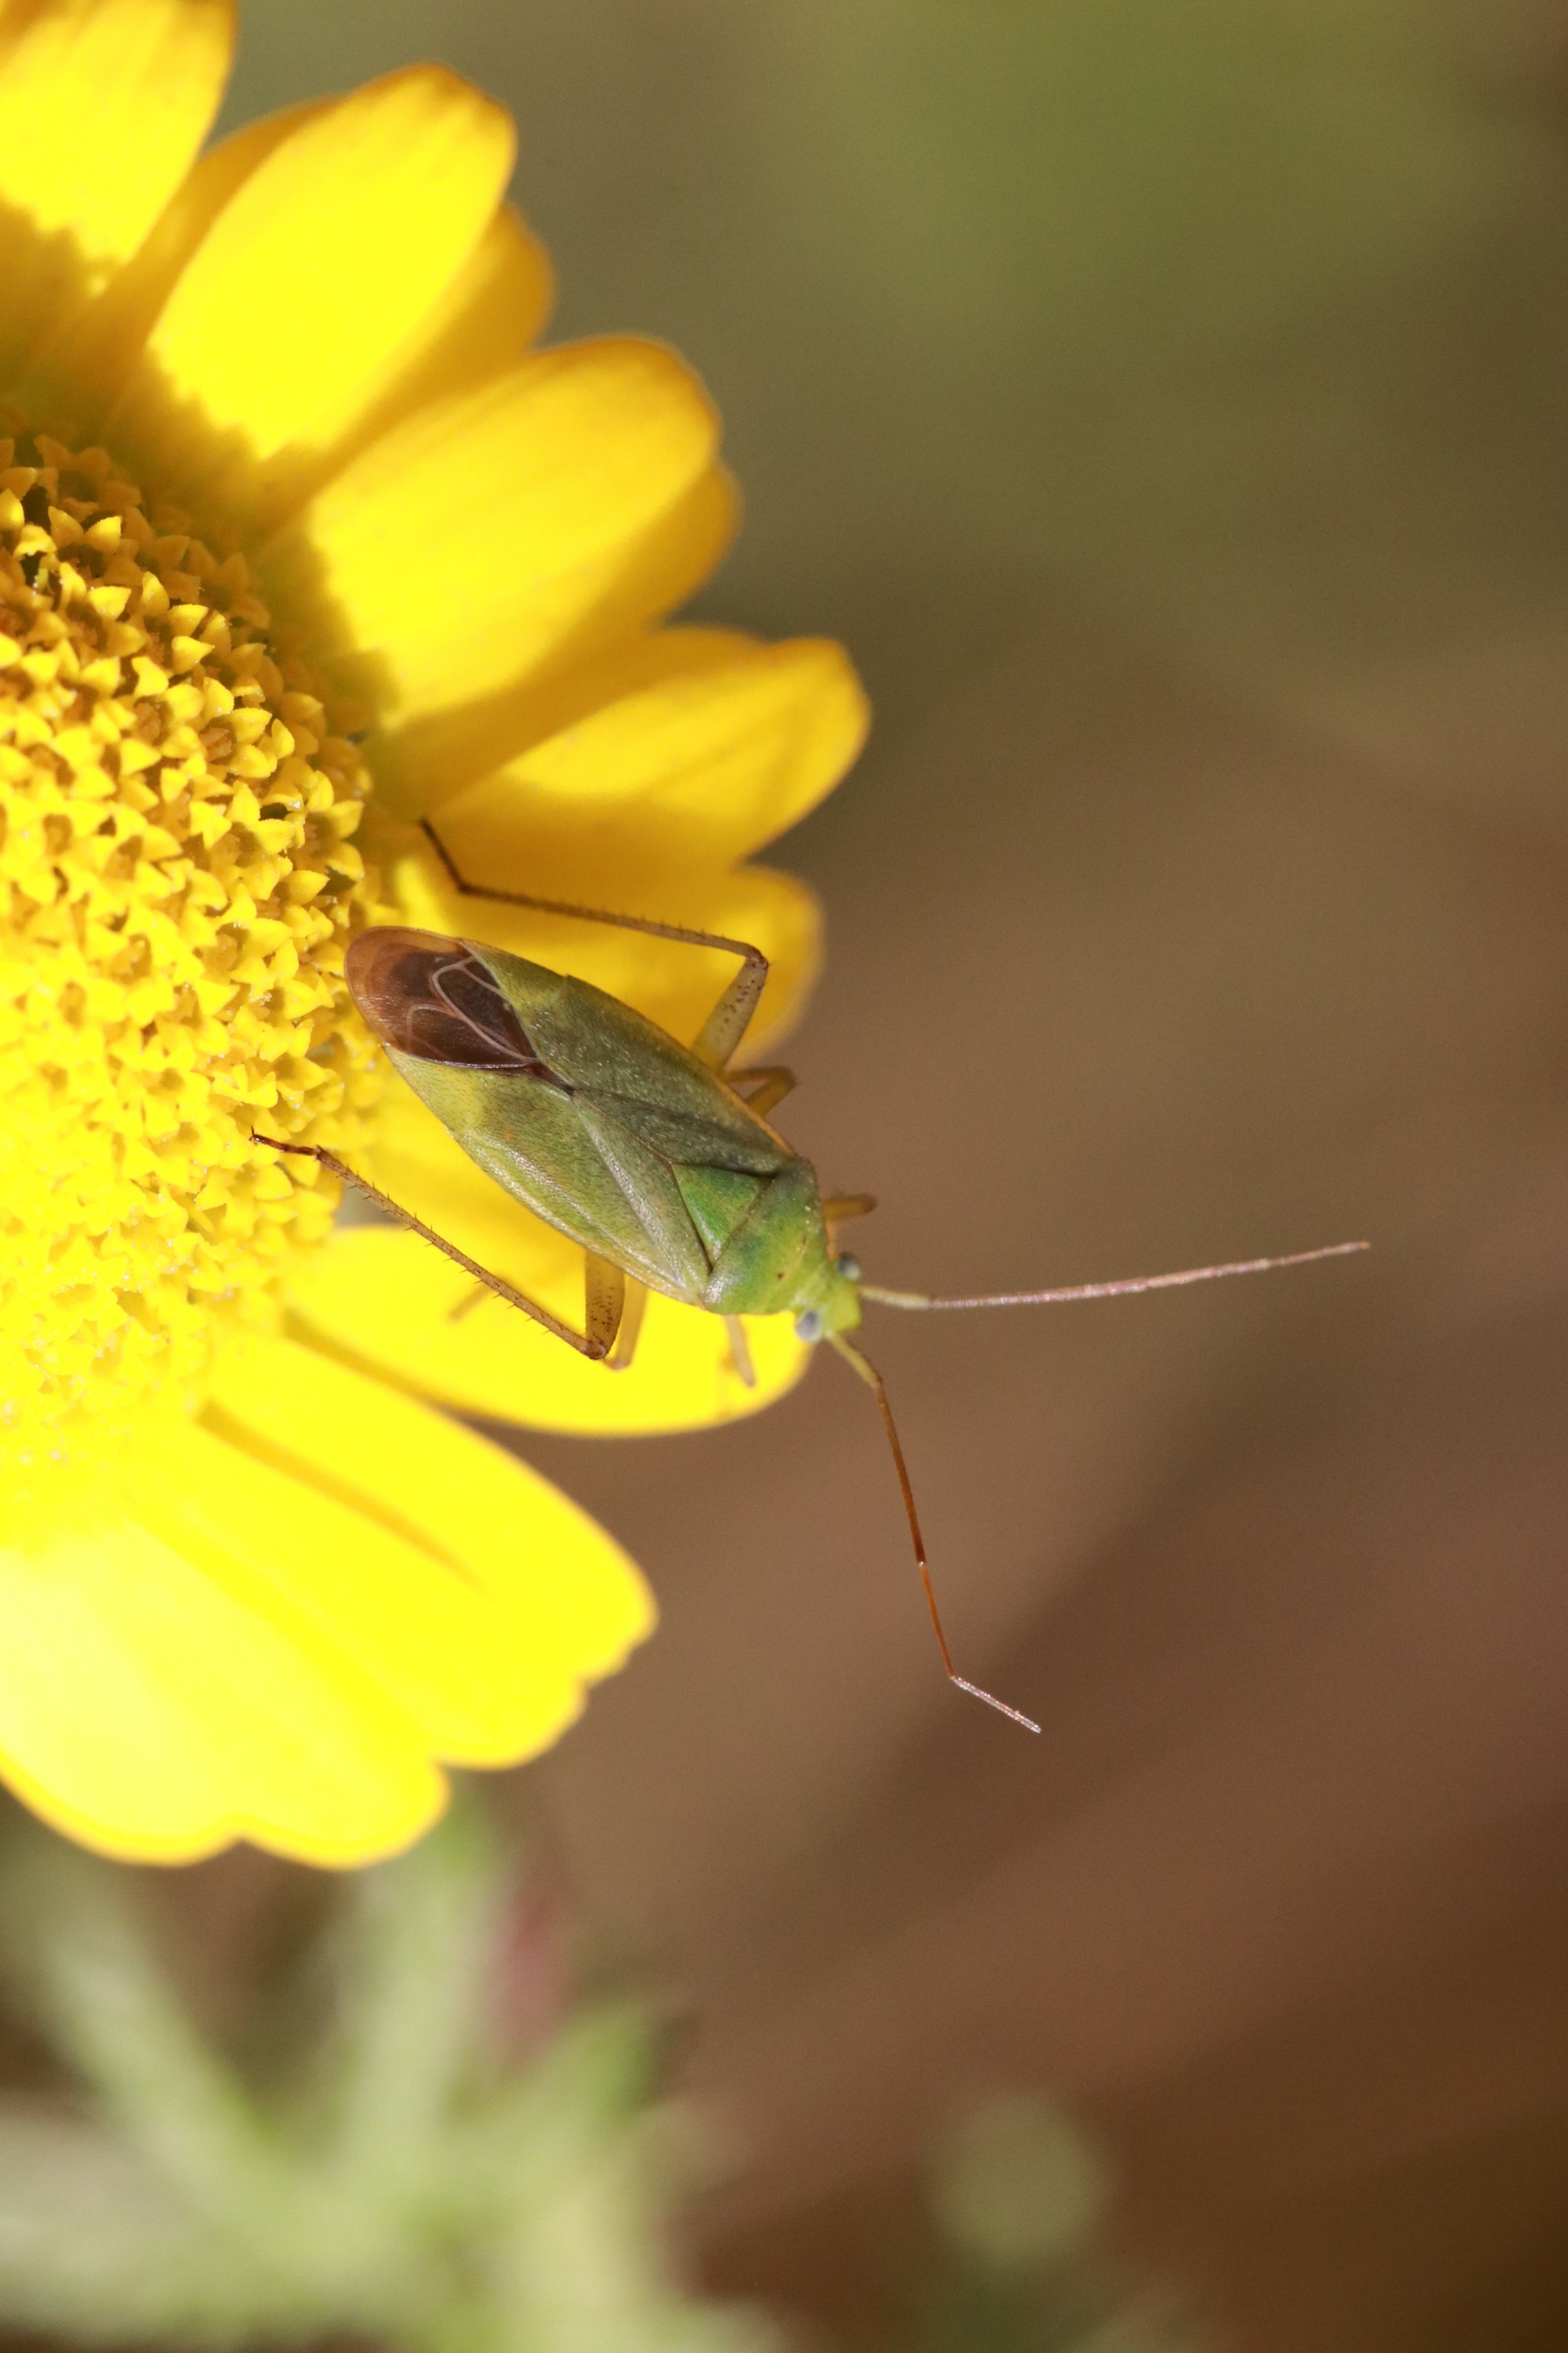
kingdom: Animalia
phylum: Arthropoda
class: Insecta
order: Hemiptera
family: Miridae
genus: Closterotomus
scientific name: Closterotomus norvegicus
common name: Toplettet bederoetæge
